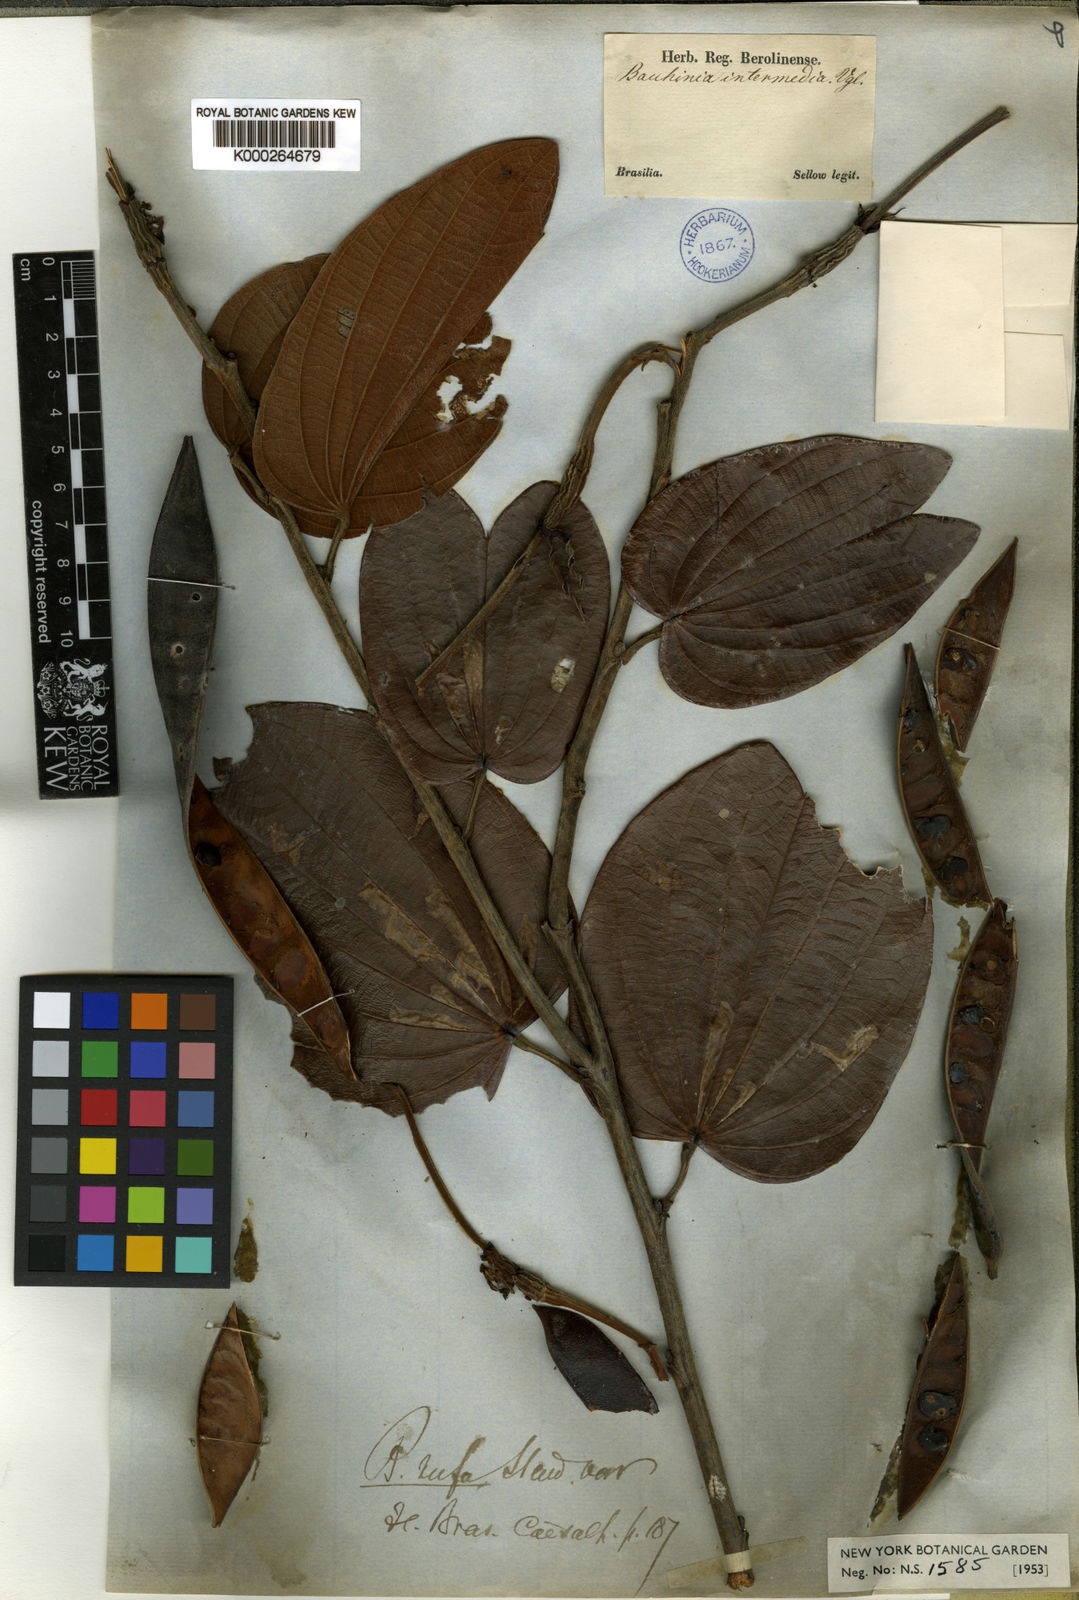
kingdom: Plantae
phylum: Tracheophyta
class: Magnoliopsida
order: Fabales
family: Fabaceae
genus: Bauhinia
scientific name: Bauhinia holophylla
